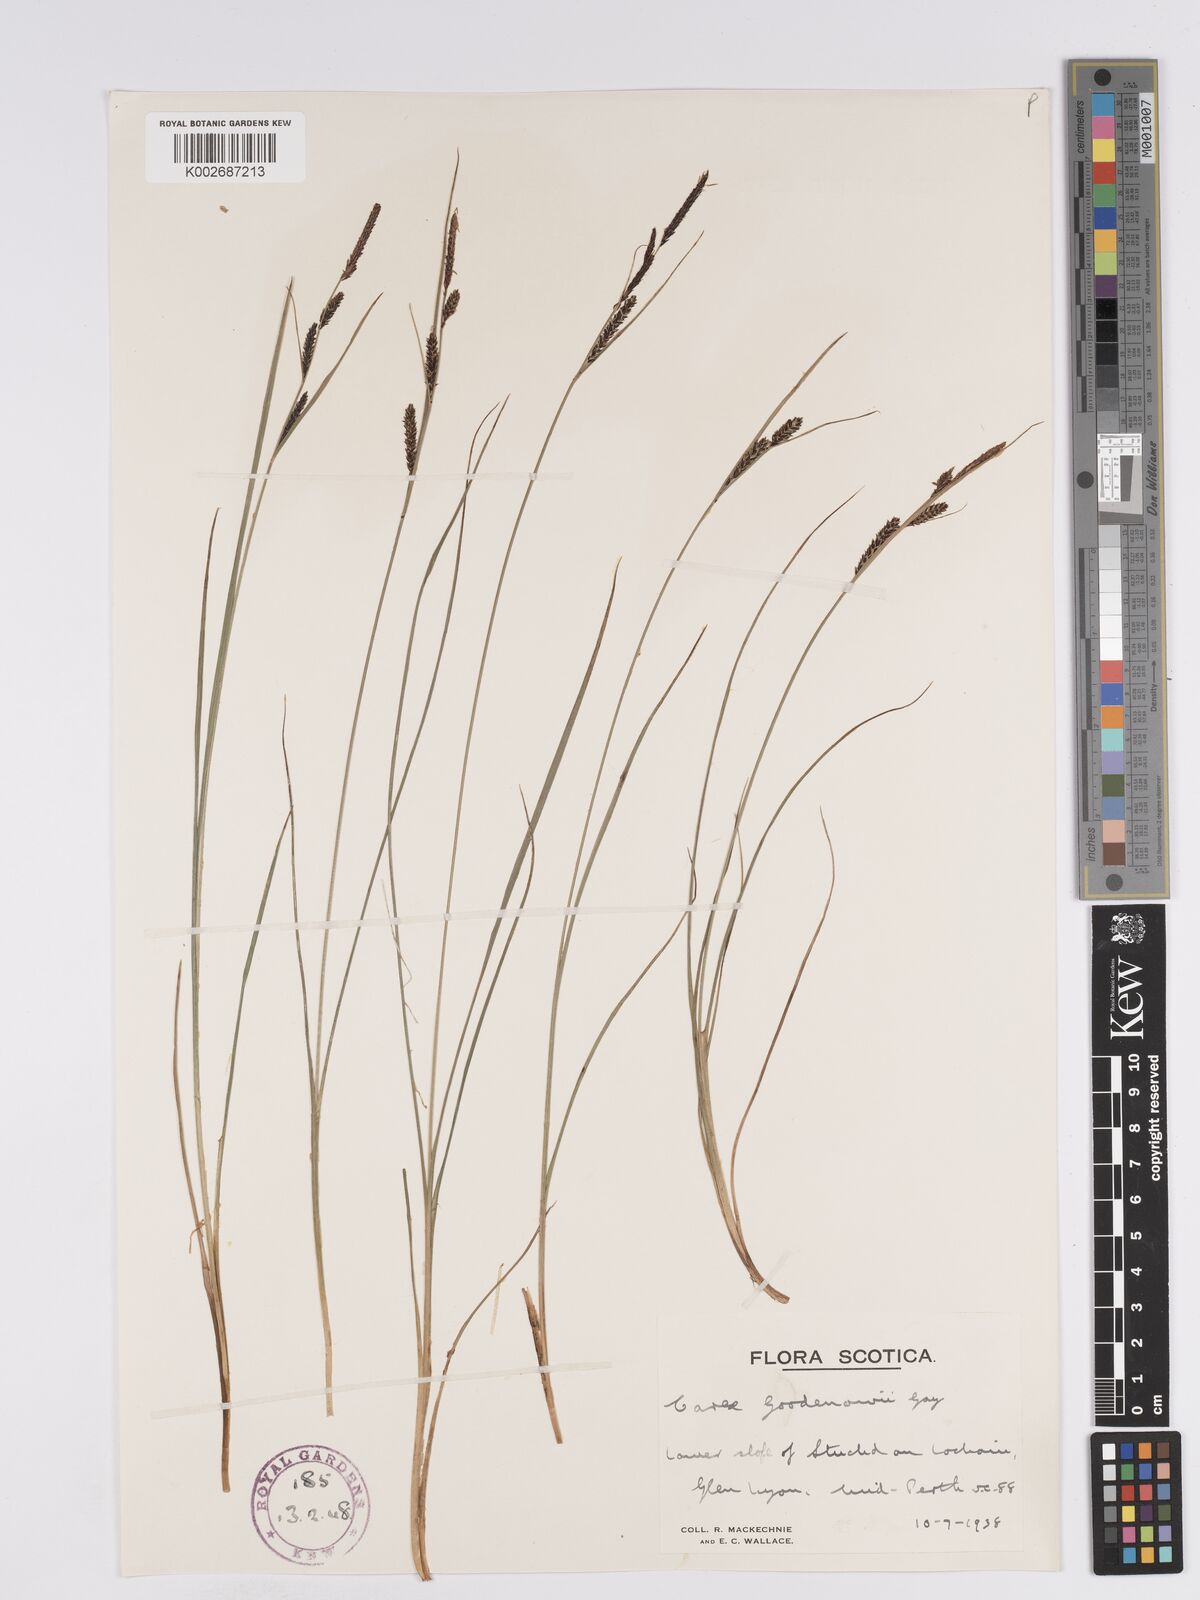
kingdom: Plantae
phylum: Tracheophyta
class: Liliopsida
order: Poales
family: Cyperaceae
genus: Carex
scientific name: Carex nigra
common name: Common sedge
